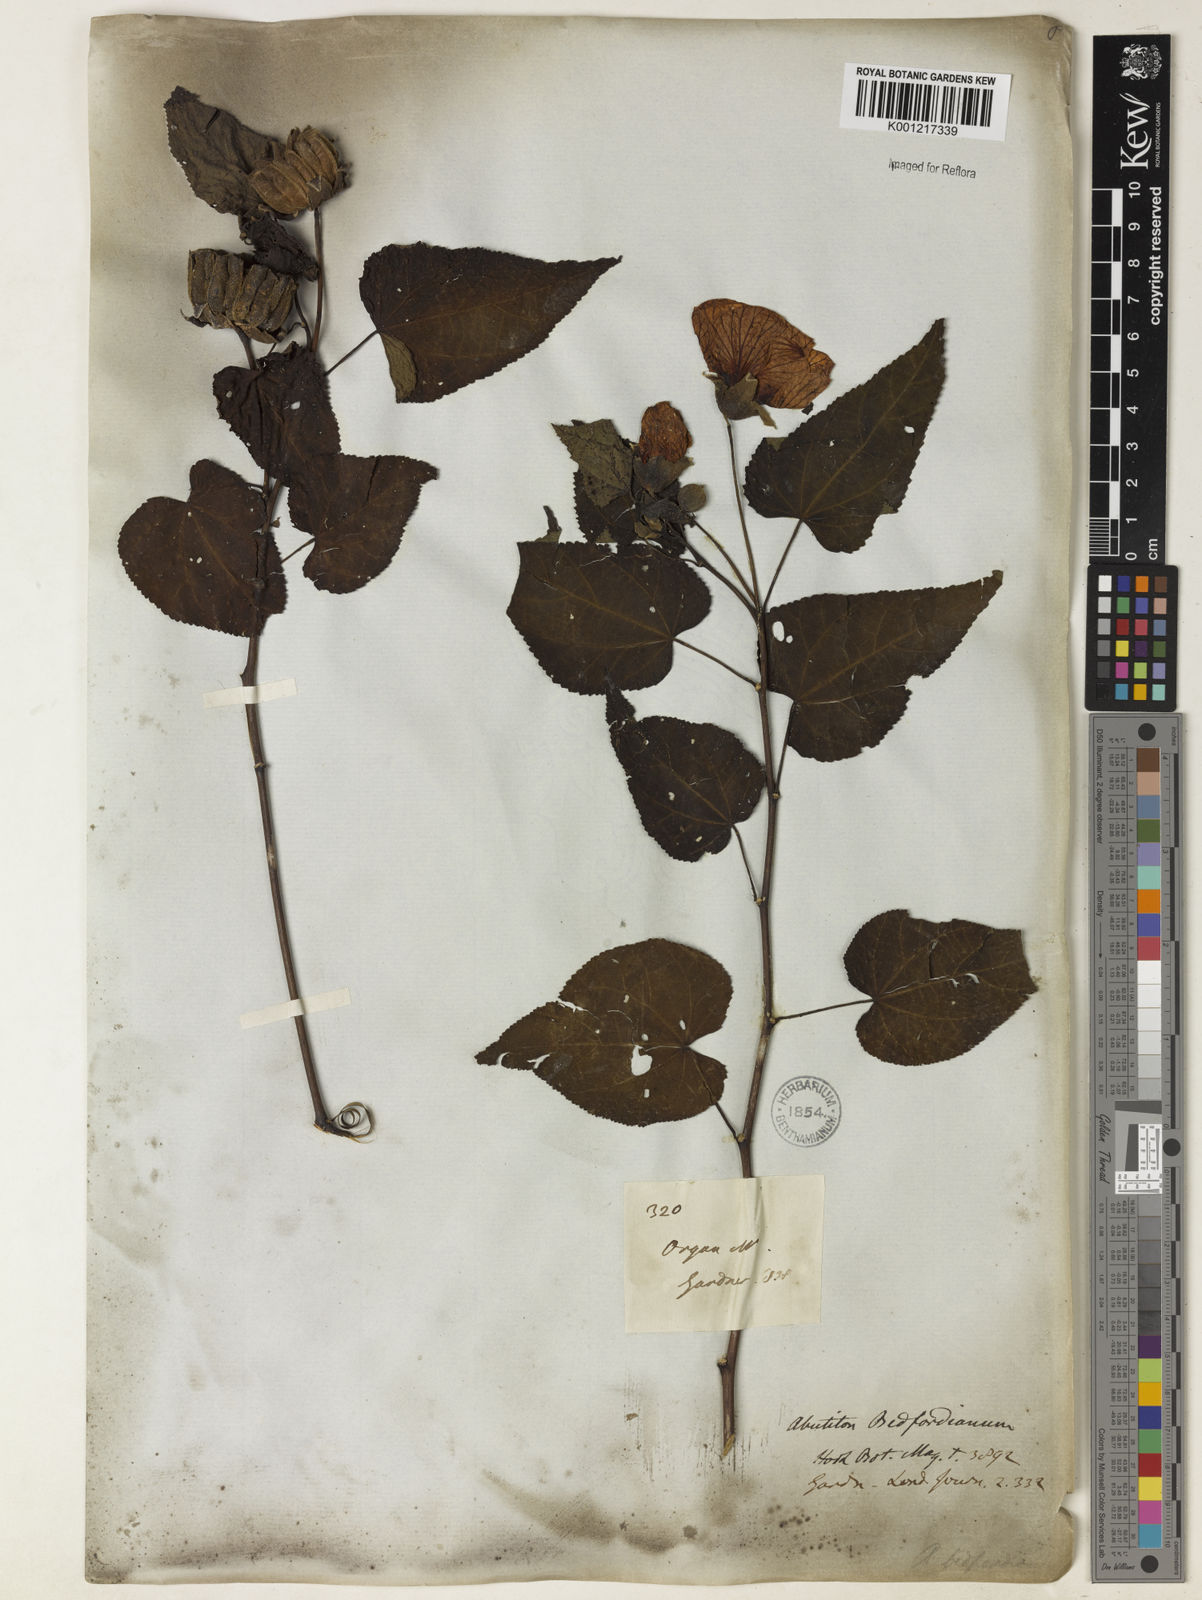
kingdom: Plantae
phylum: Tracheophyta
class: Magnoliopsida
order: Malvales
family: Malvaceae
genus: Callianthe
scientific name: Callianthe bedfordiana
